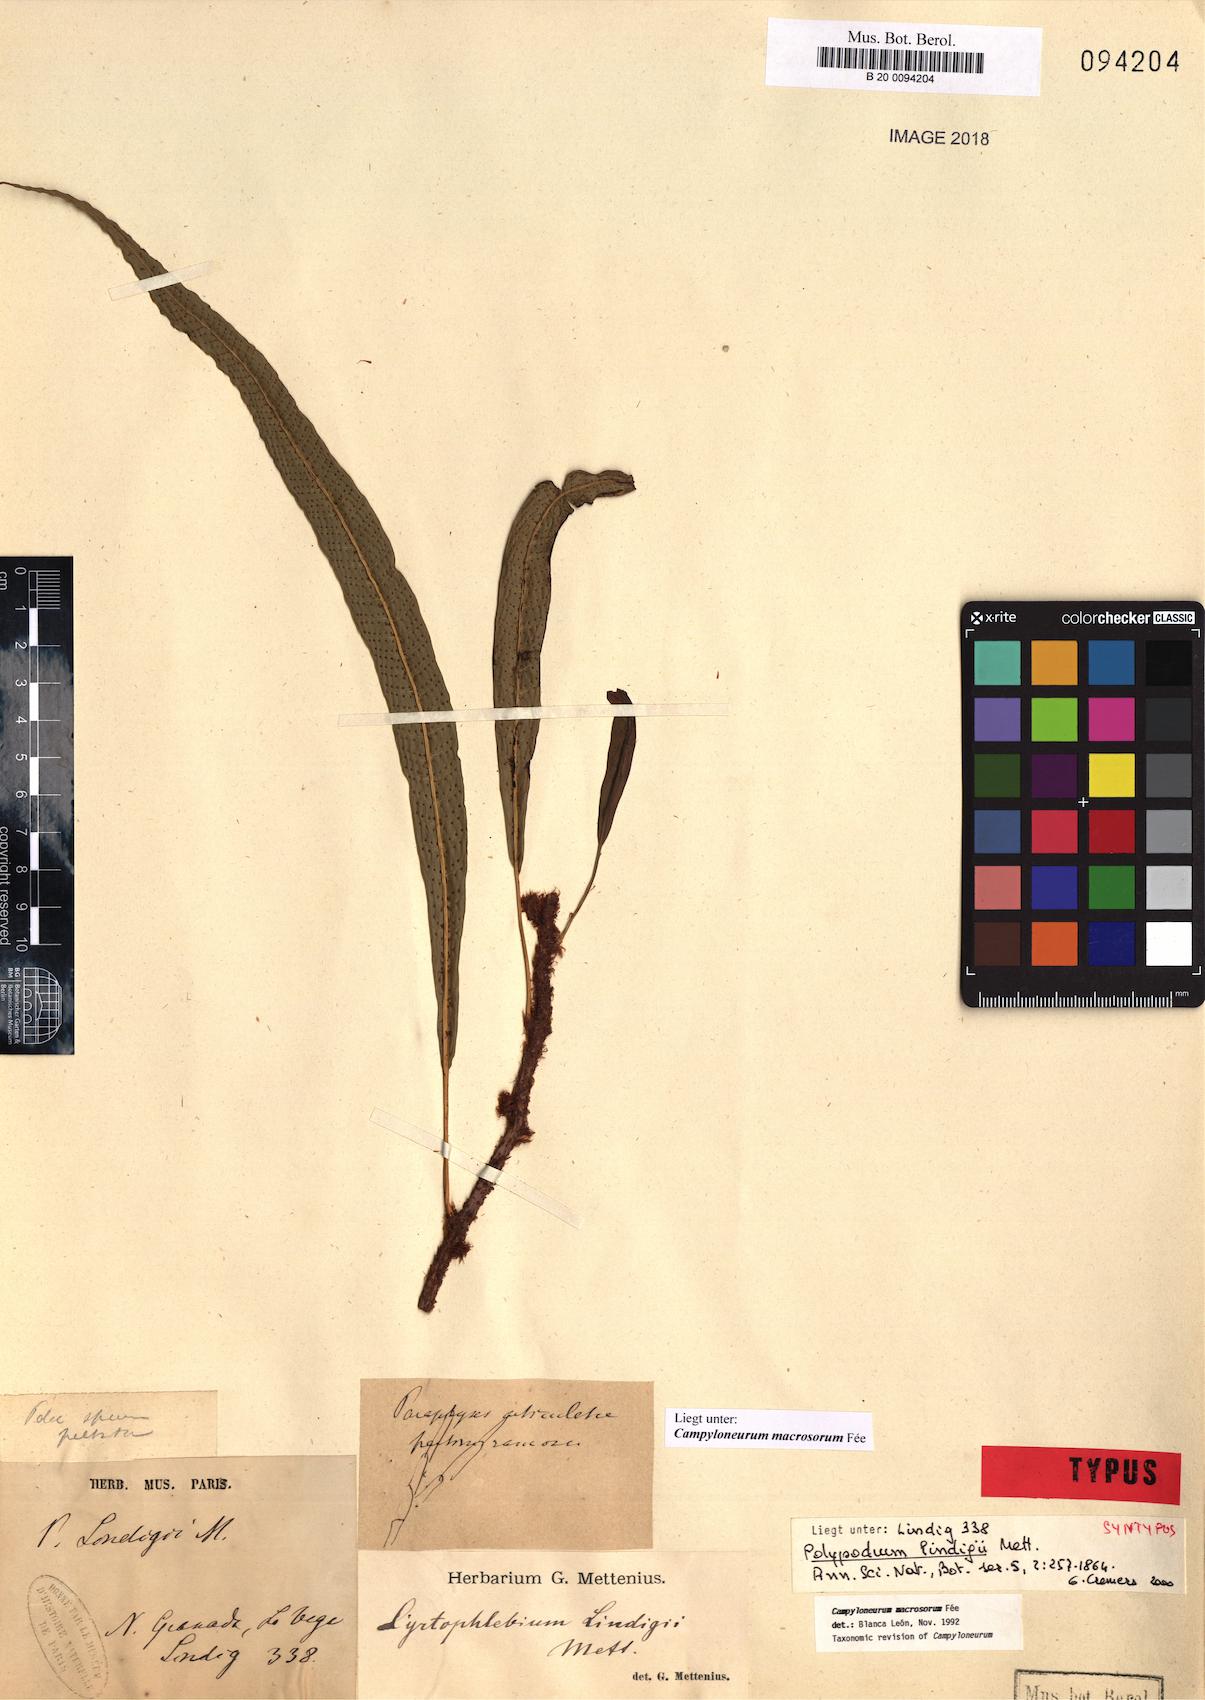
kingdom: Plantae
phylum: Tracheophyta
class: Polypodiopsida
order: Polypodiales
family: Polypodiaceae
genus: Campyloneurum
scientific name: Campyloneurum macrosorum
